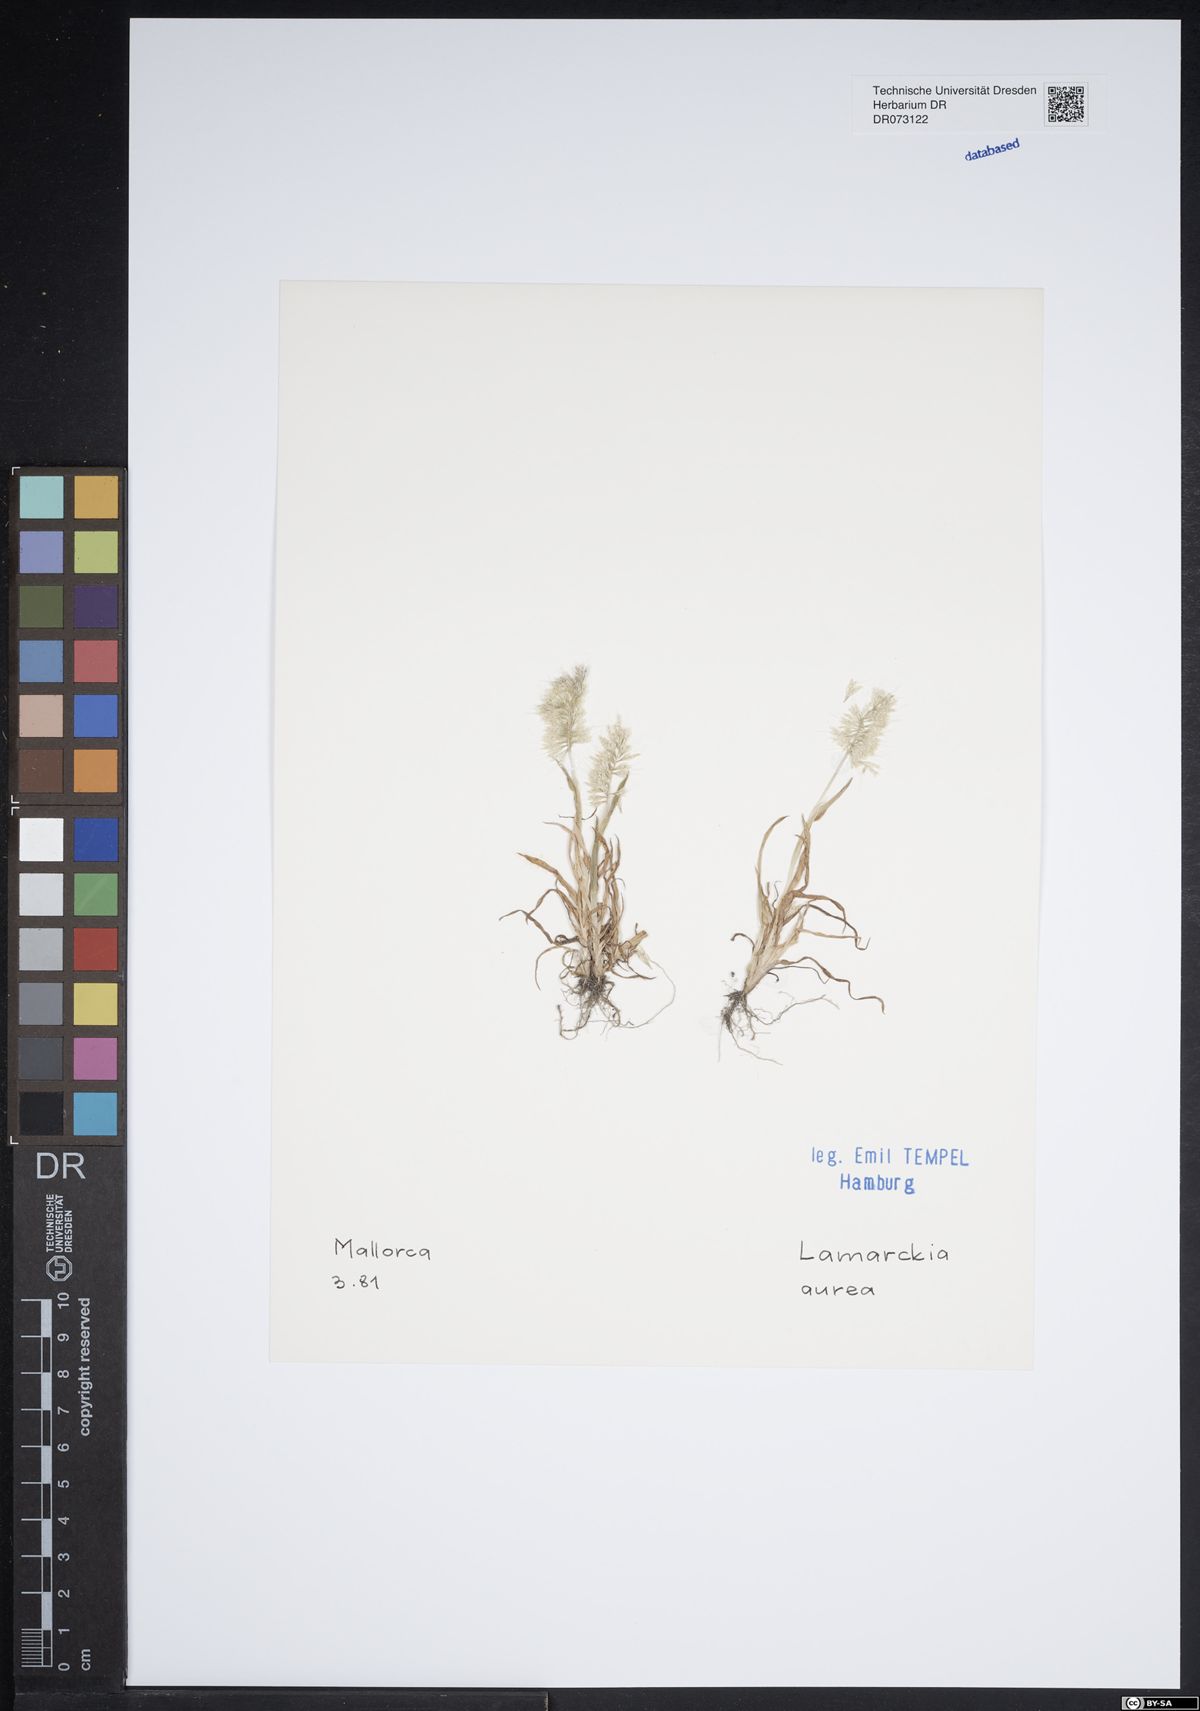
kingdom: Plantae
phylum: Tracheophyta
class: Liliopsida
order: Poales
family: Poaceae
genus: Lamarckia
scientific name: Lamarckia aurea
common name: Golden dog's-tail
